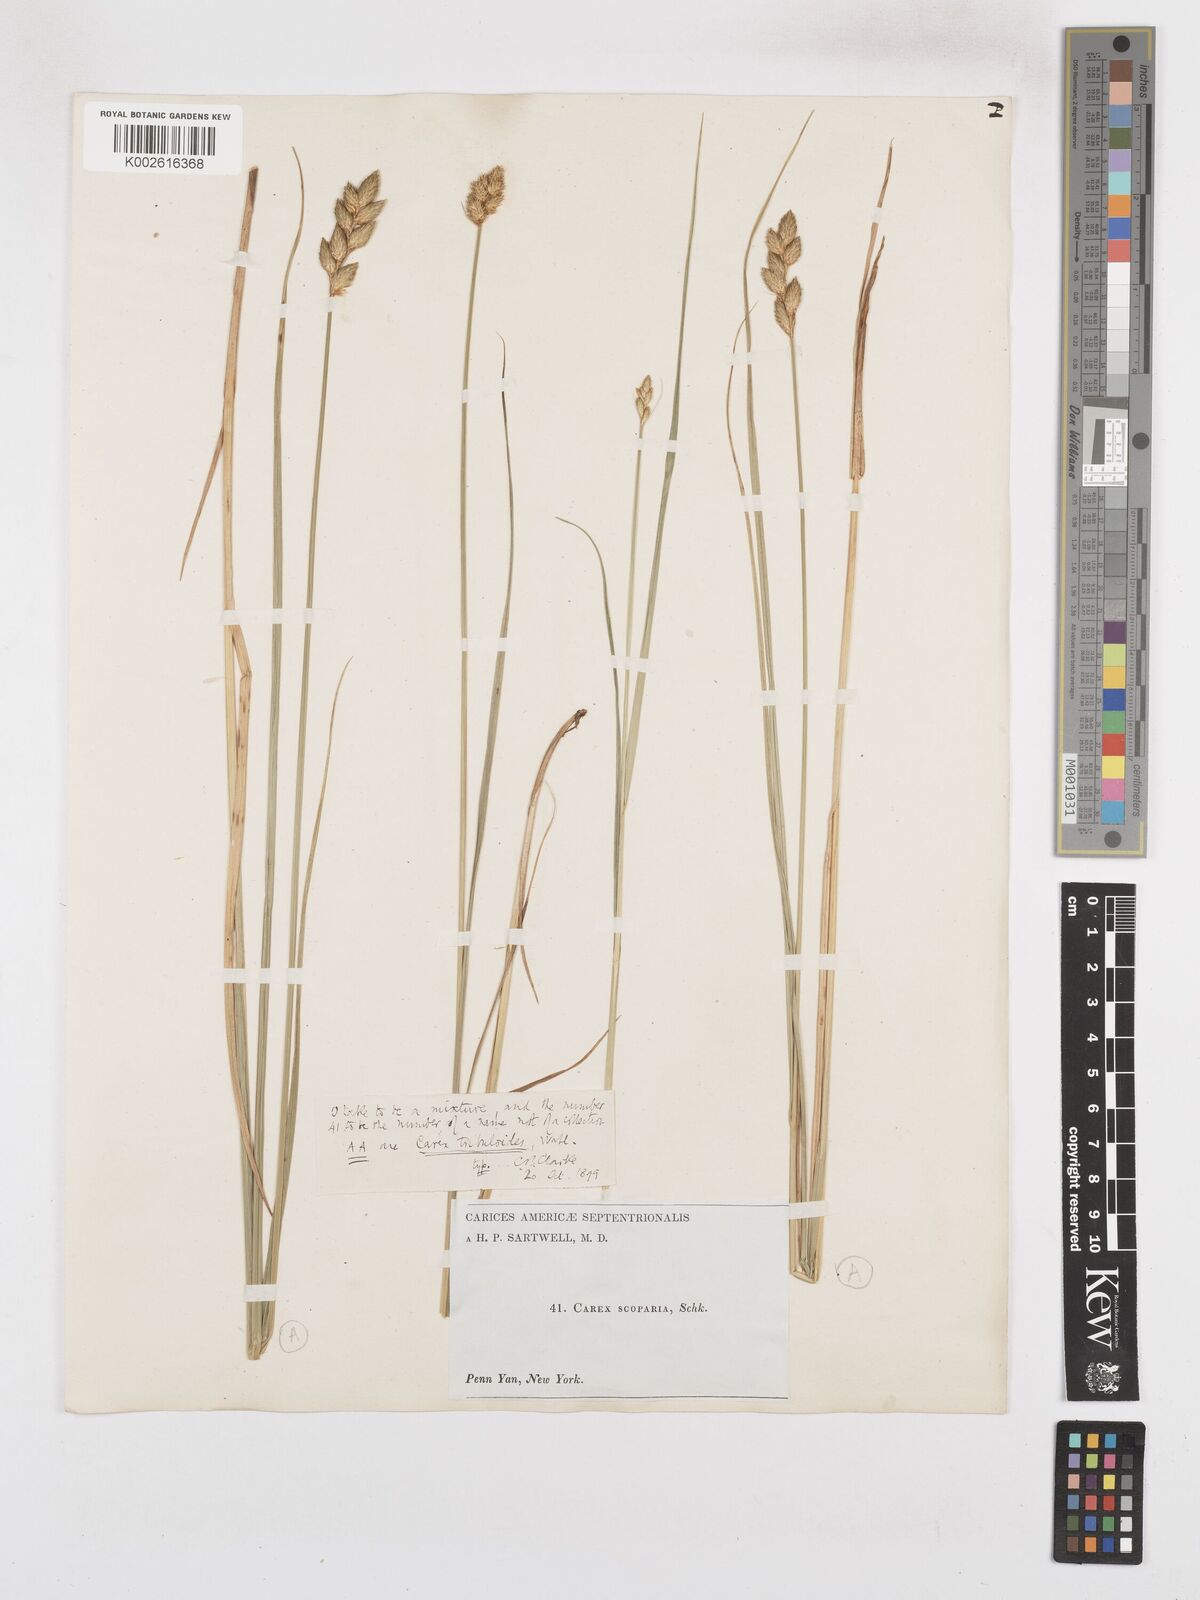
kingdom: Plantae
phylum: Tracheophyta
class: Liliopsida
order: Poales
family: Cyperaceae
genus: Carex
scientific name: Carex tribuloides
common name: Blunt broom sedge
